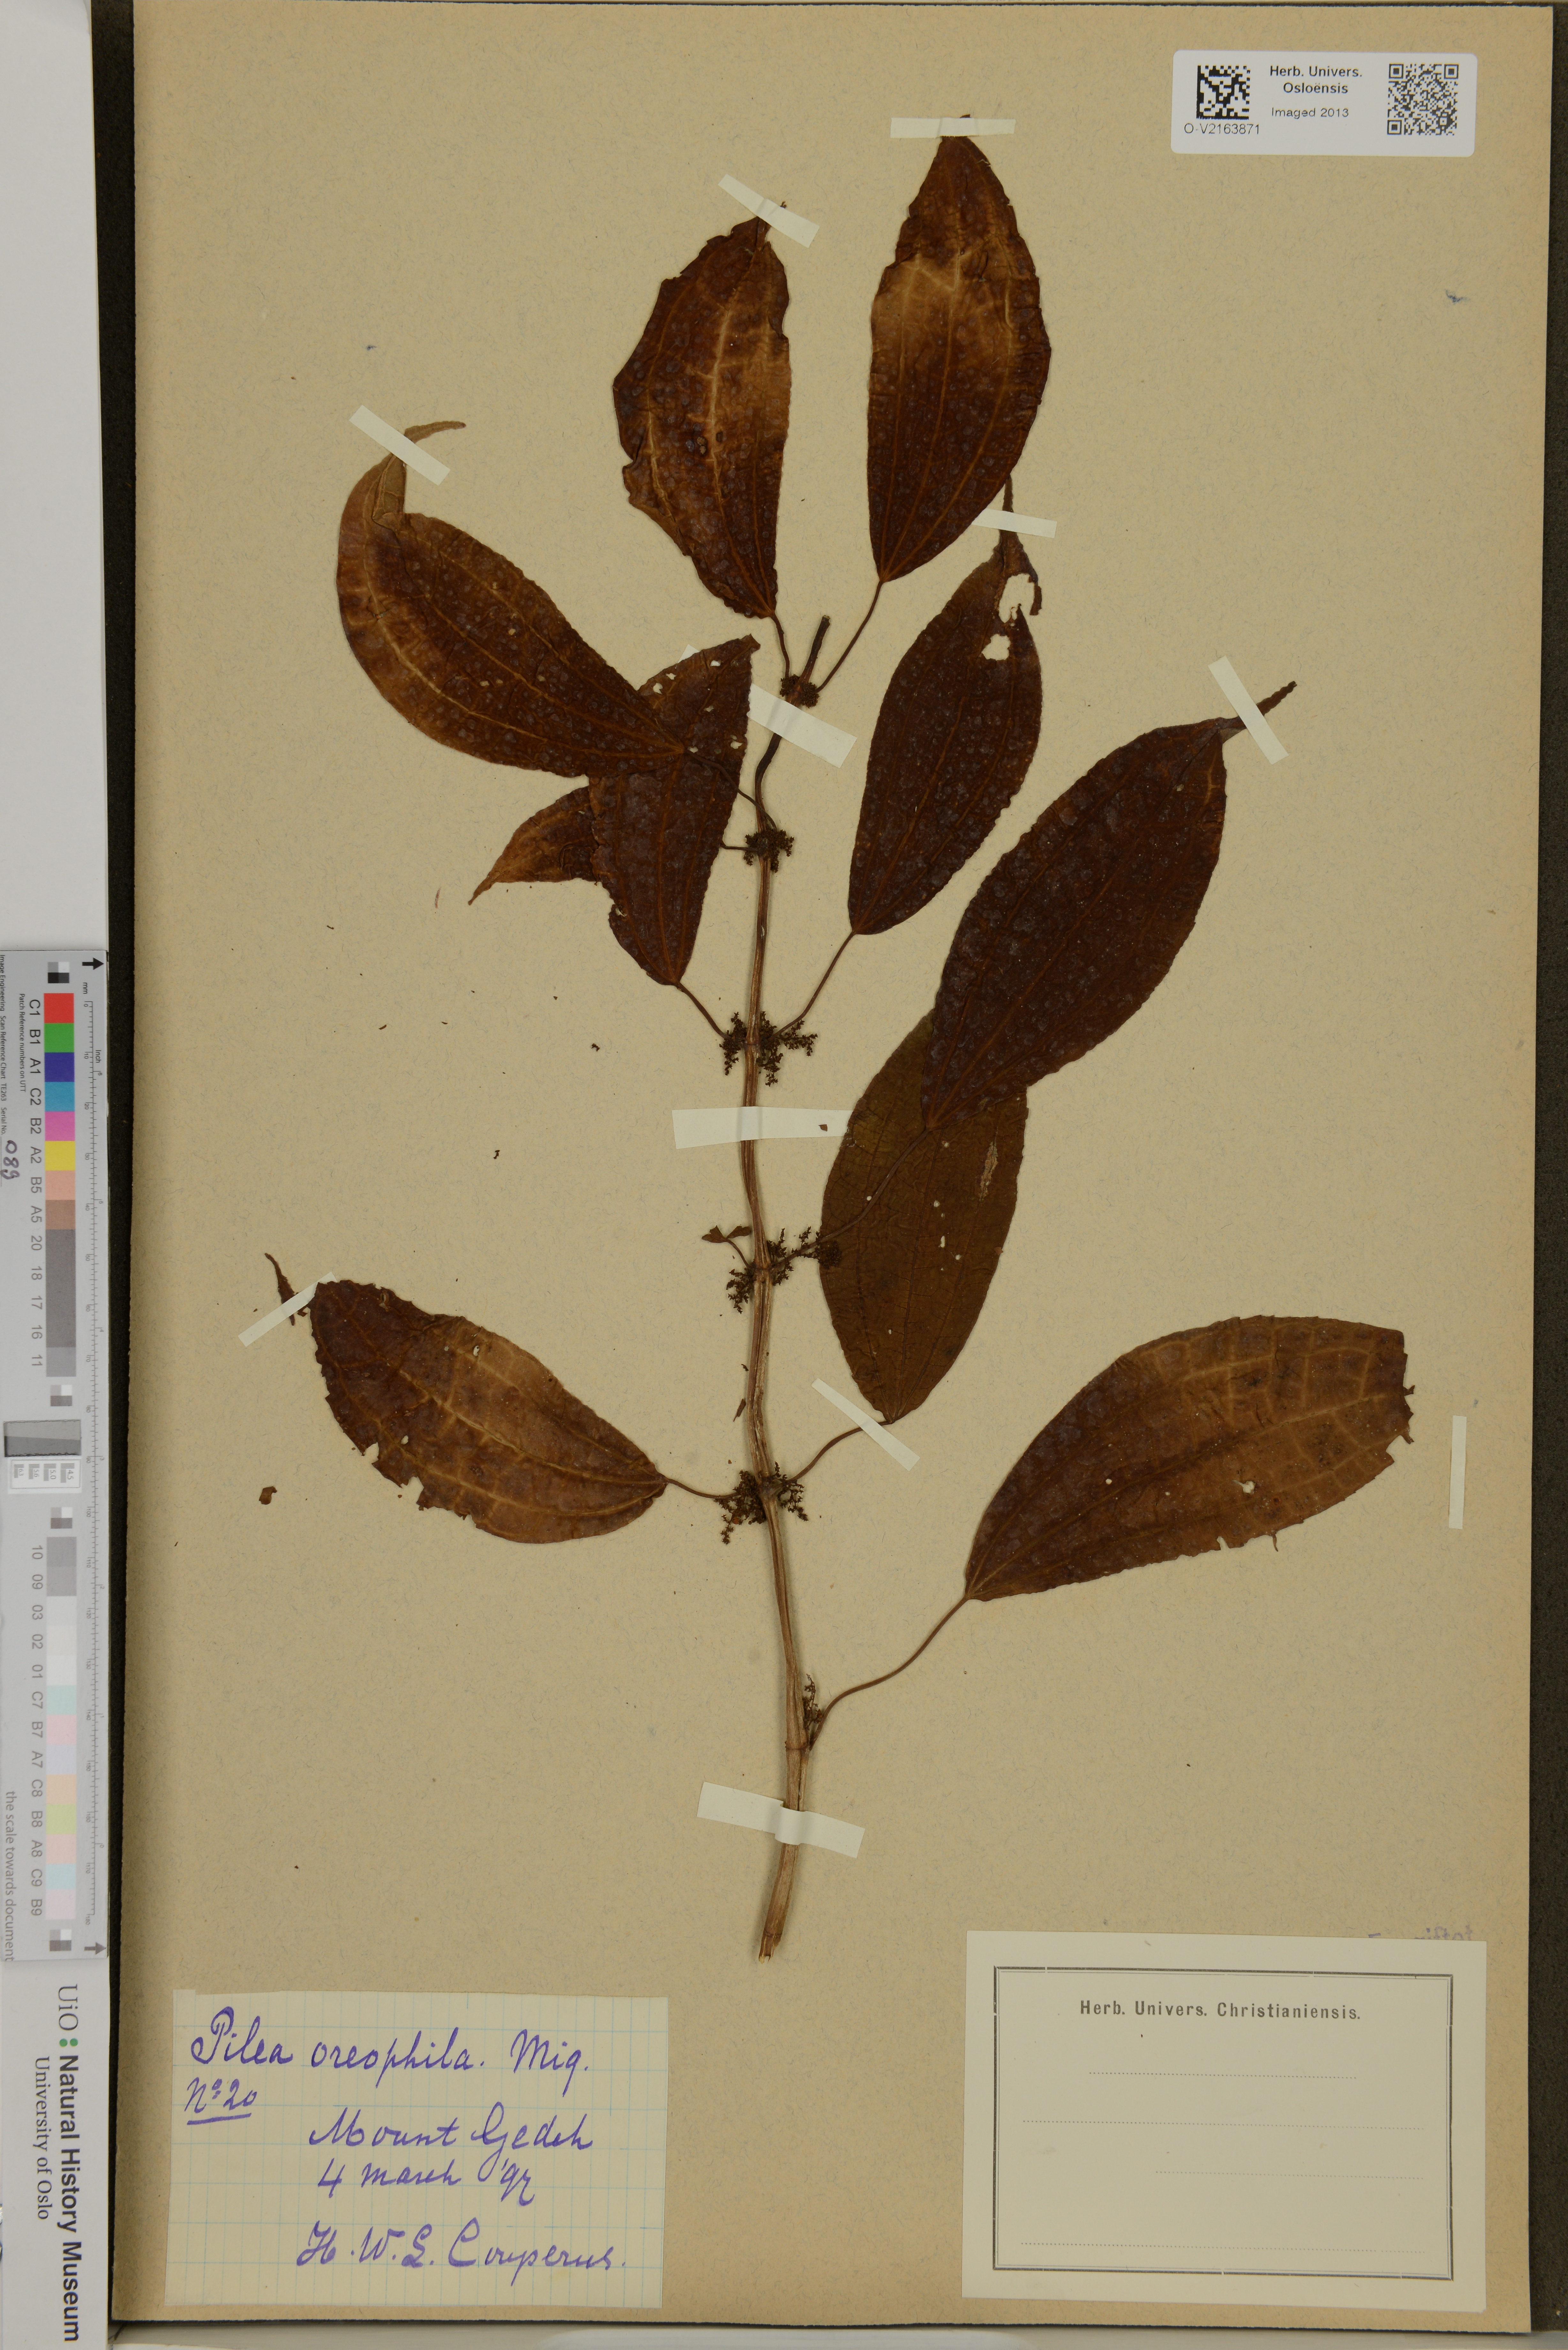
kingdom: Plantae
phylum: Tracheophyta
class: Magnoliopsida
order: Rosales
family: Urticaceae
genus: Pilea
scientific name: Pilea melastomoides
